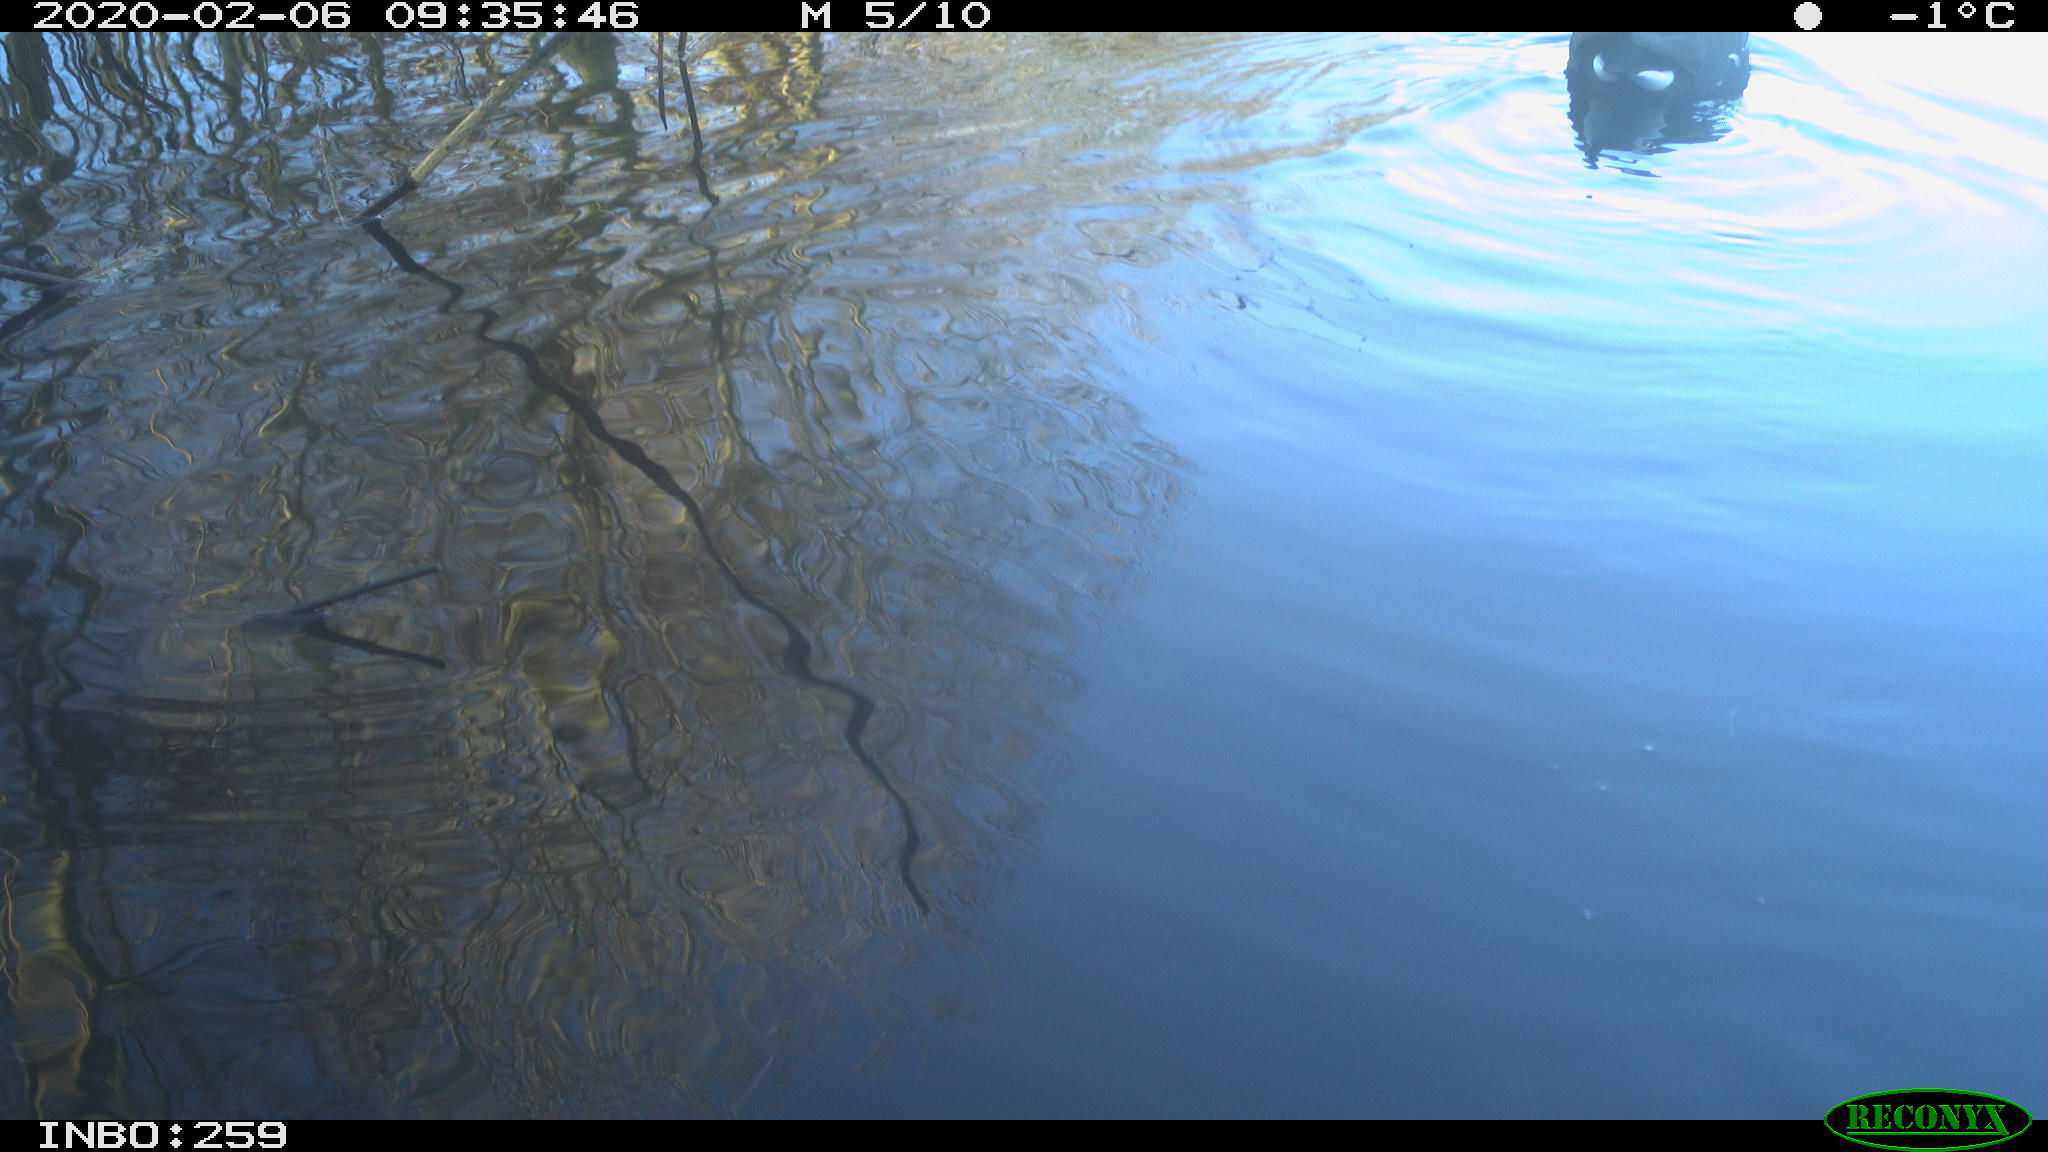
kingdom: Animalia
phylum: Chordata
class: Aves
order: Gruiformes
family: Rallidae
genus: Gallinula
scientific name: Gallinula chloropus
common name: Common moorhen
